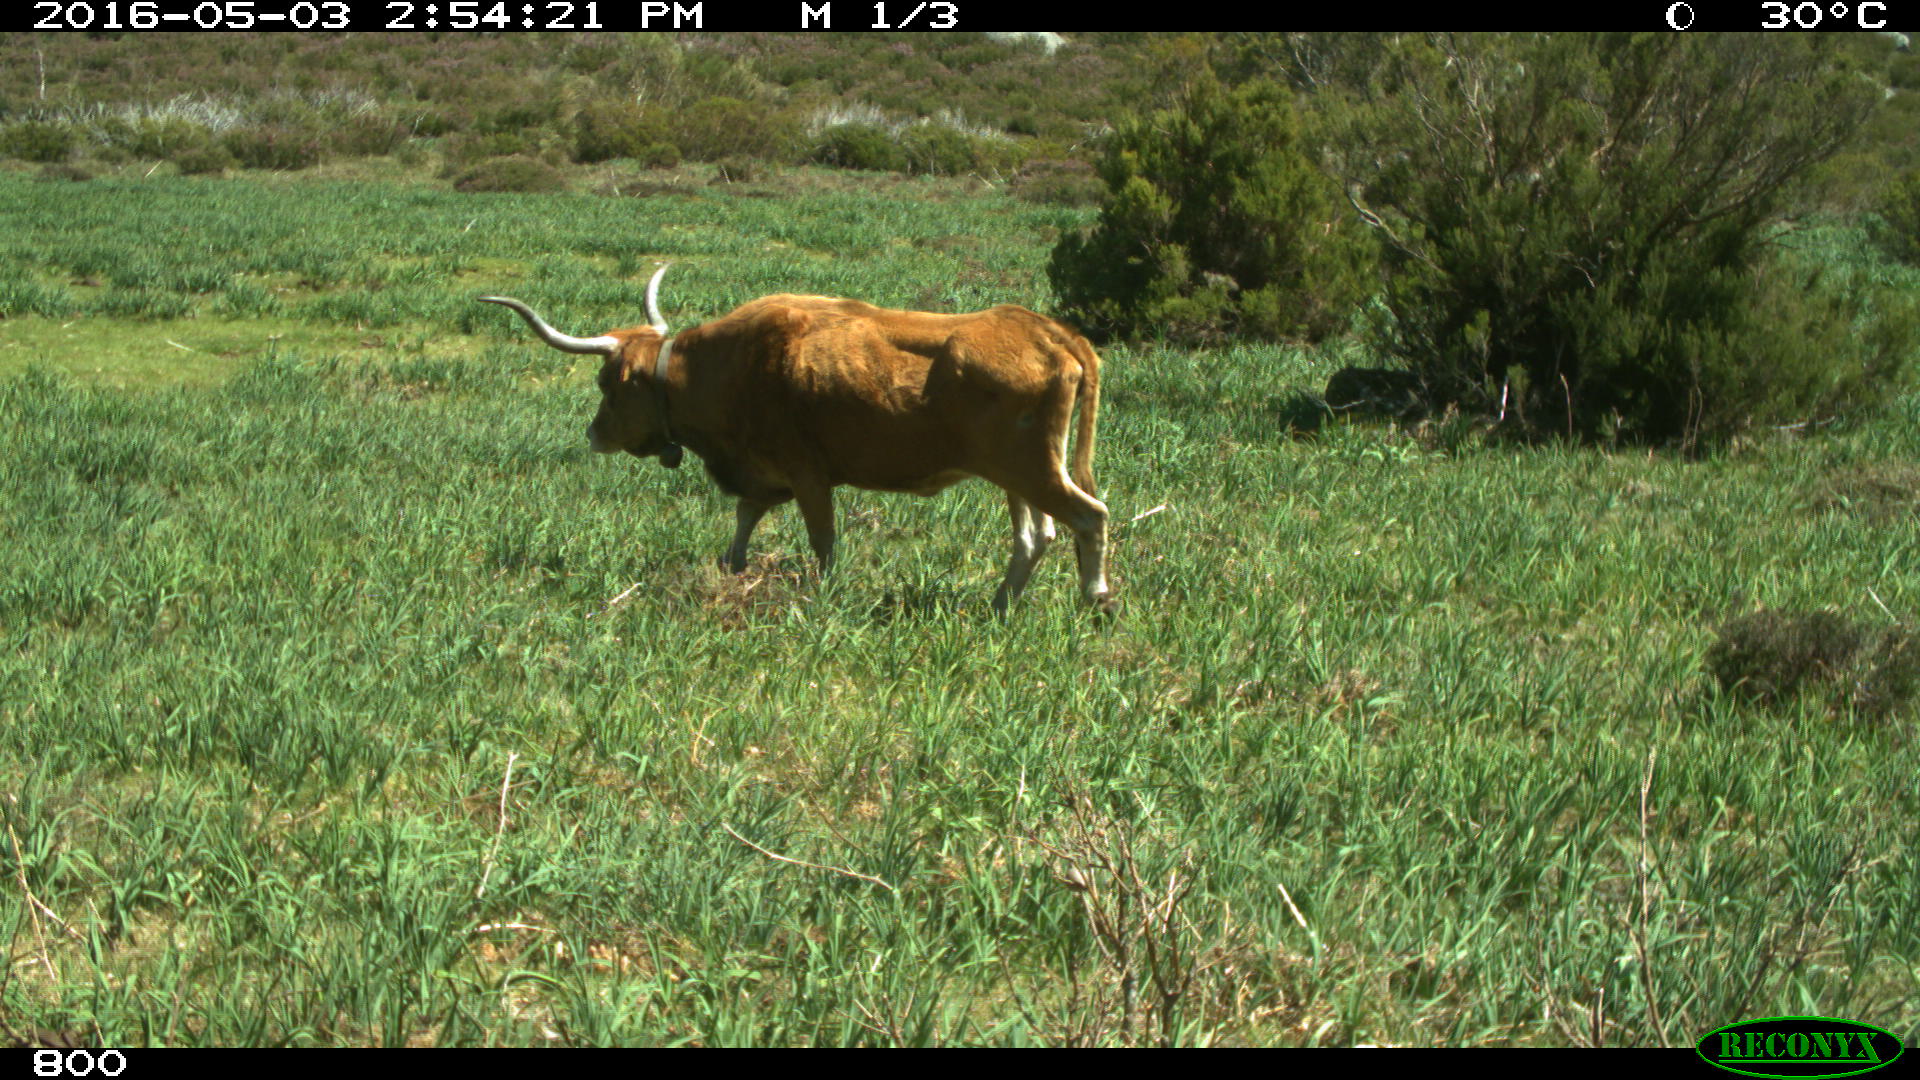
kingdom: Animalia
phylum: Chordata
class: Mammalia
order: Artiodactyla
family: Bovidae
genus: Bos
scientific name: Bos taurus
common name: Domesticated cattle
